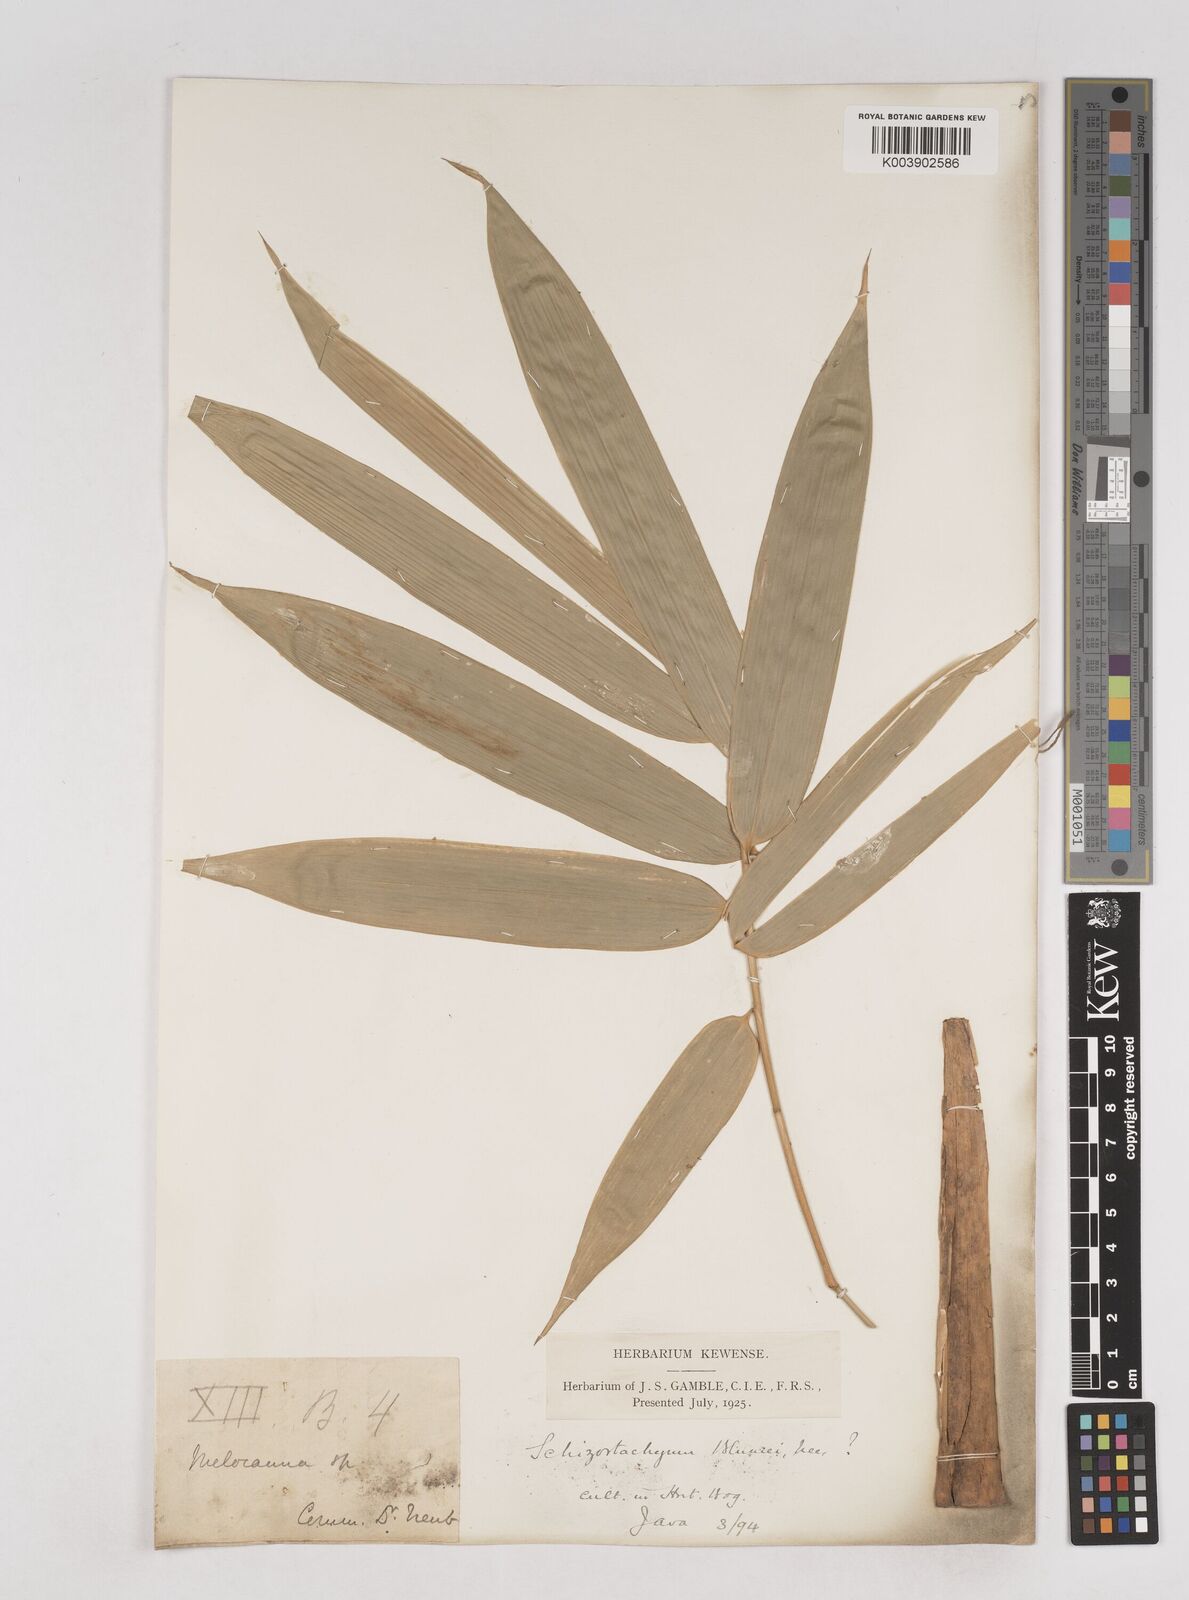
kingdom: Plantae
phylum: Tracheophyta
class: Liliopsida
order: Poales
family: Poaceae
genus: Schizostachyum
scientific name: Schizostachyum
